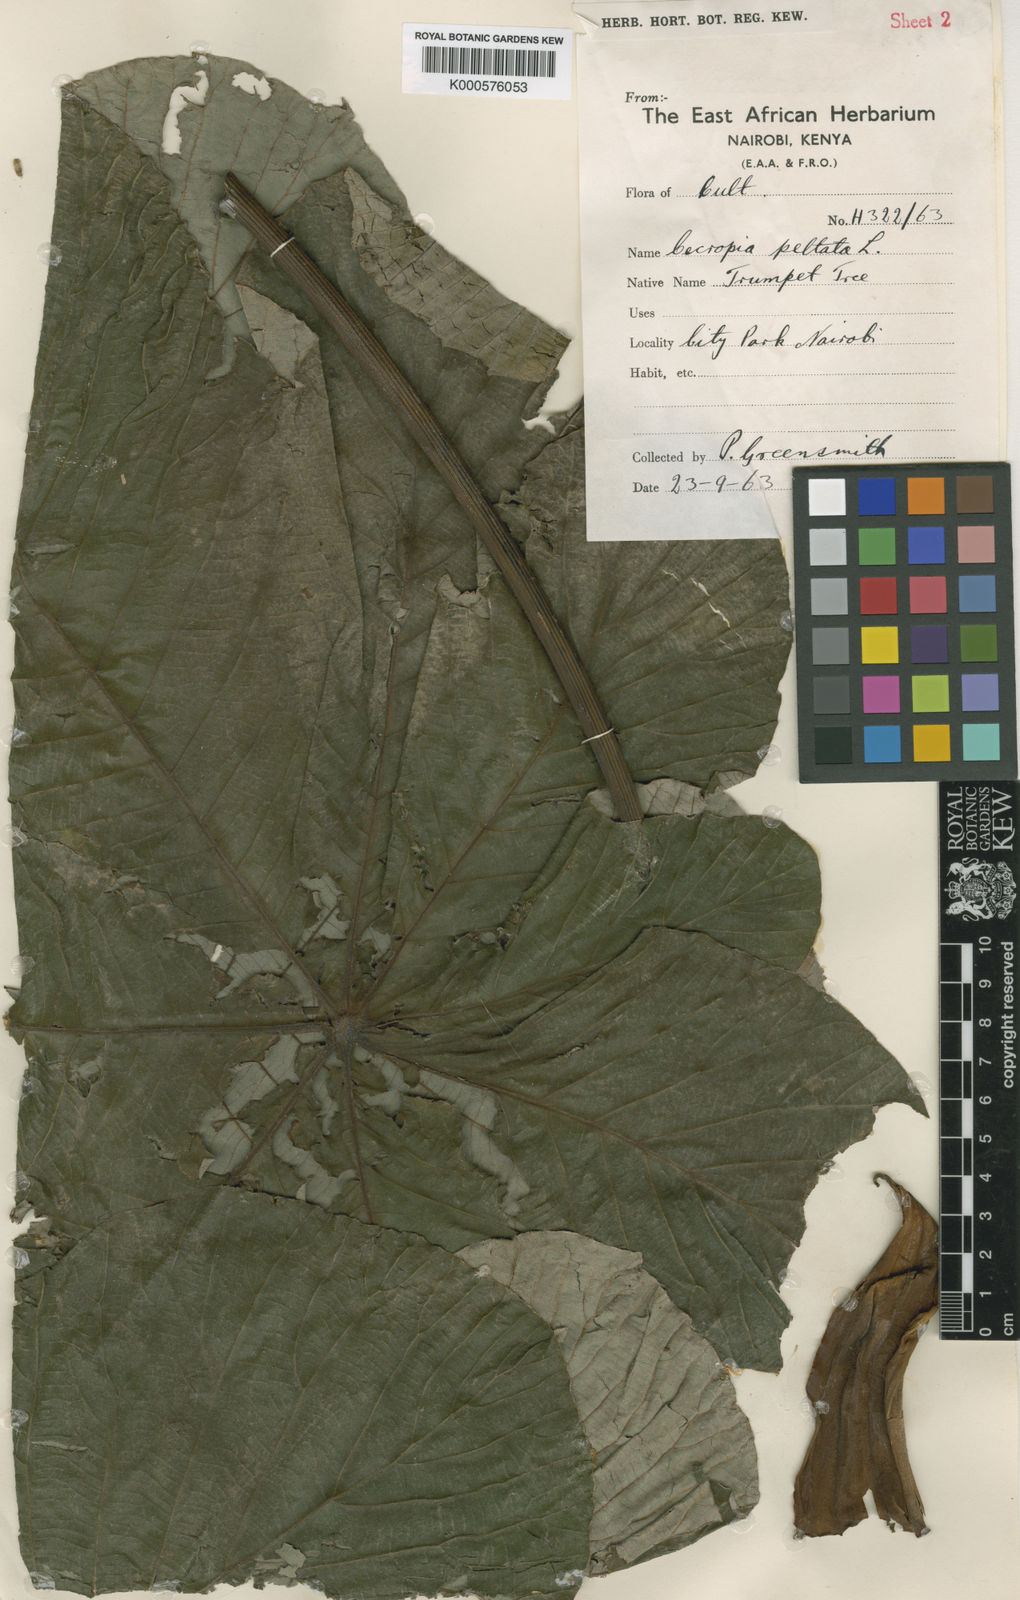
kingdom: Plantae
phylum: Tracheophyta
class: Magnoliopsida
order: Rosales
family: Urticaceae
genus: Cecropia
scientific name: Cecropia peltata
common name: Trumpet-tree
